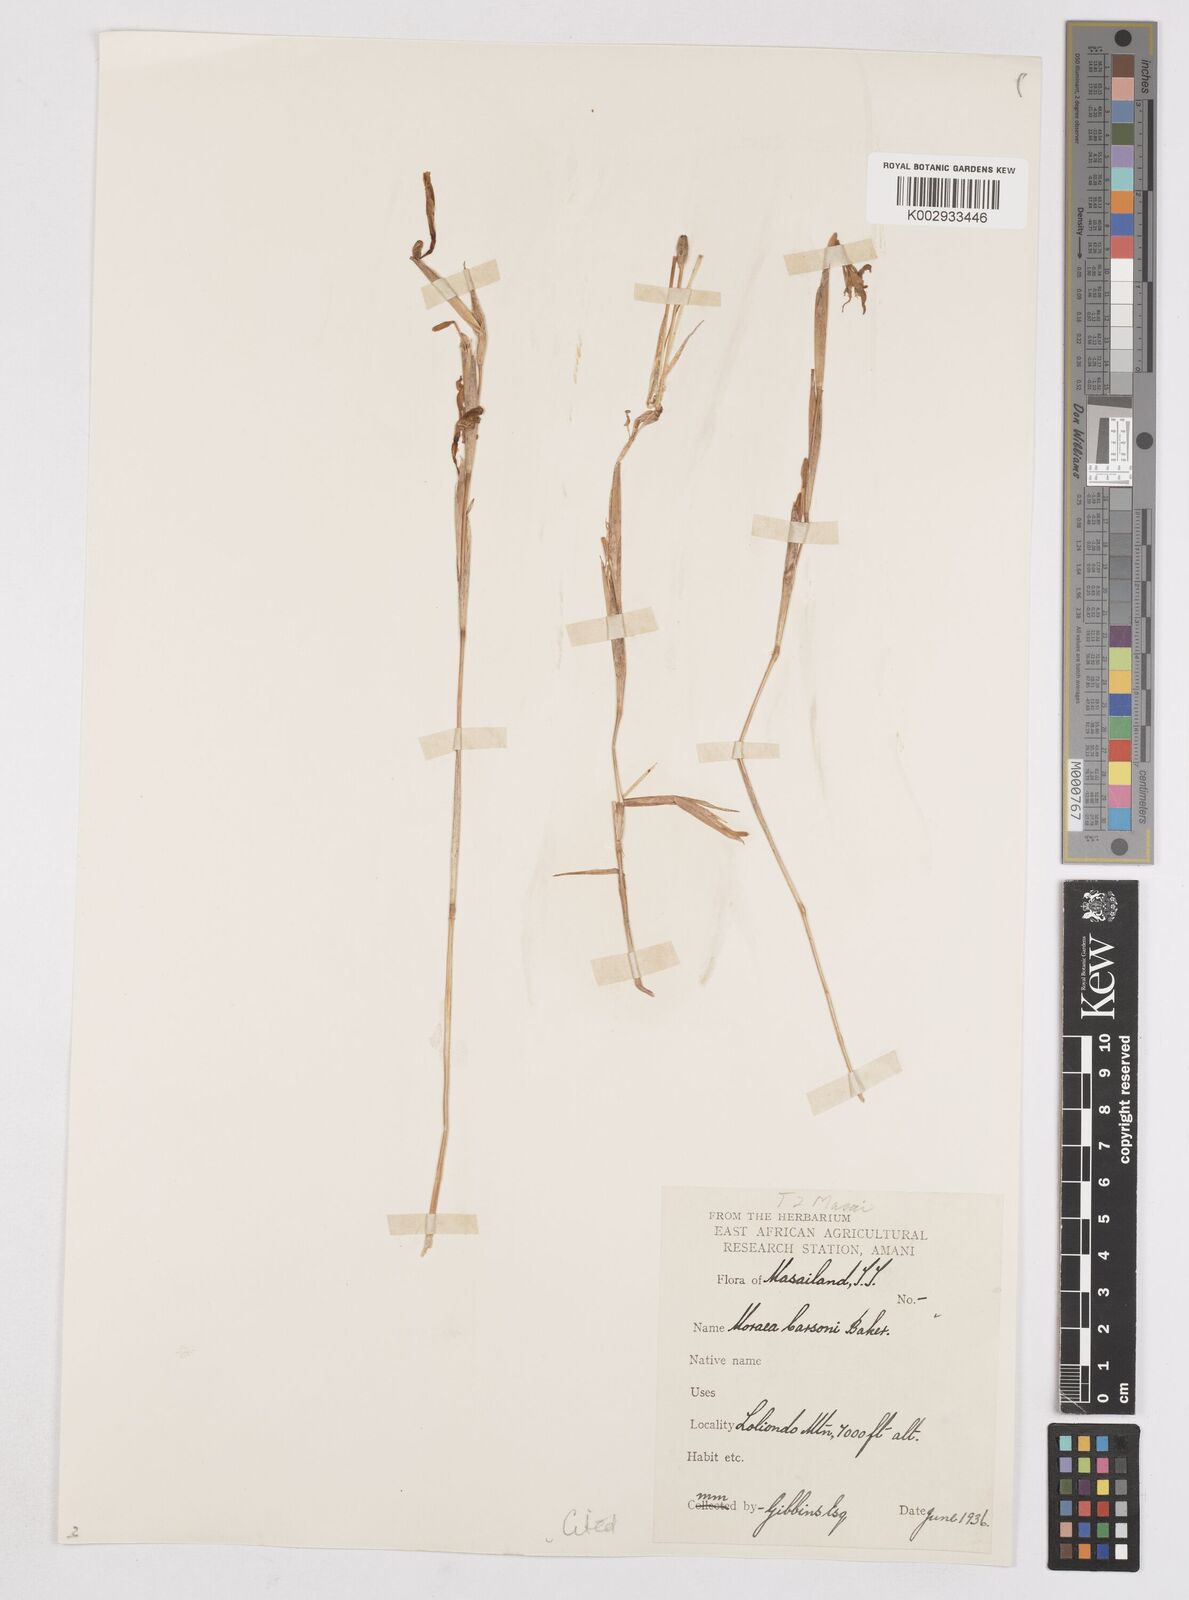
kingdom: Plantae
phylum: Tracheophyta
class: Liliopsida
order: Asparagales
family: Iridaceae
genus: Moraea
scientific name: Moraea stricta
